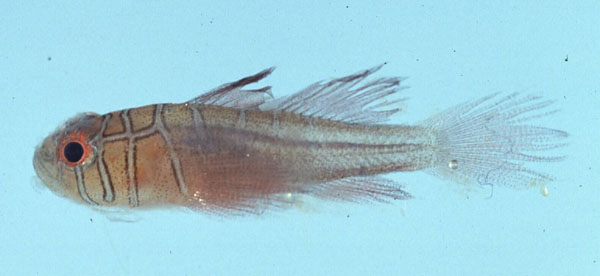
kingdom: Animalia
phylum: Chordata
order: Perciformes
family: Gobiidae
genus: Priolepis
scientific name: Priolepis compita
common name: Crossroads goby
